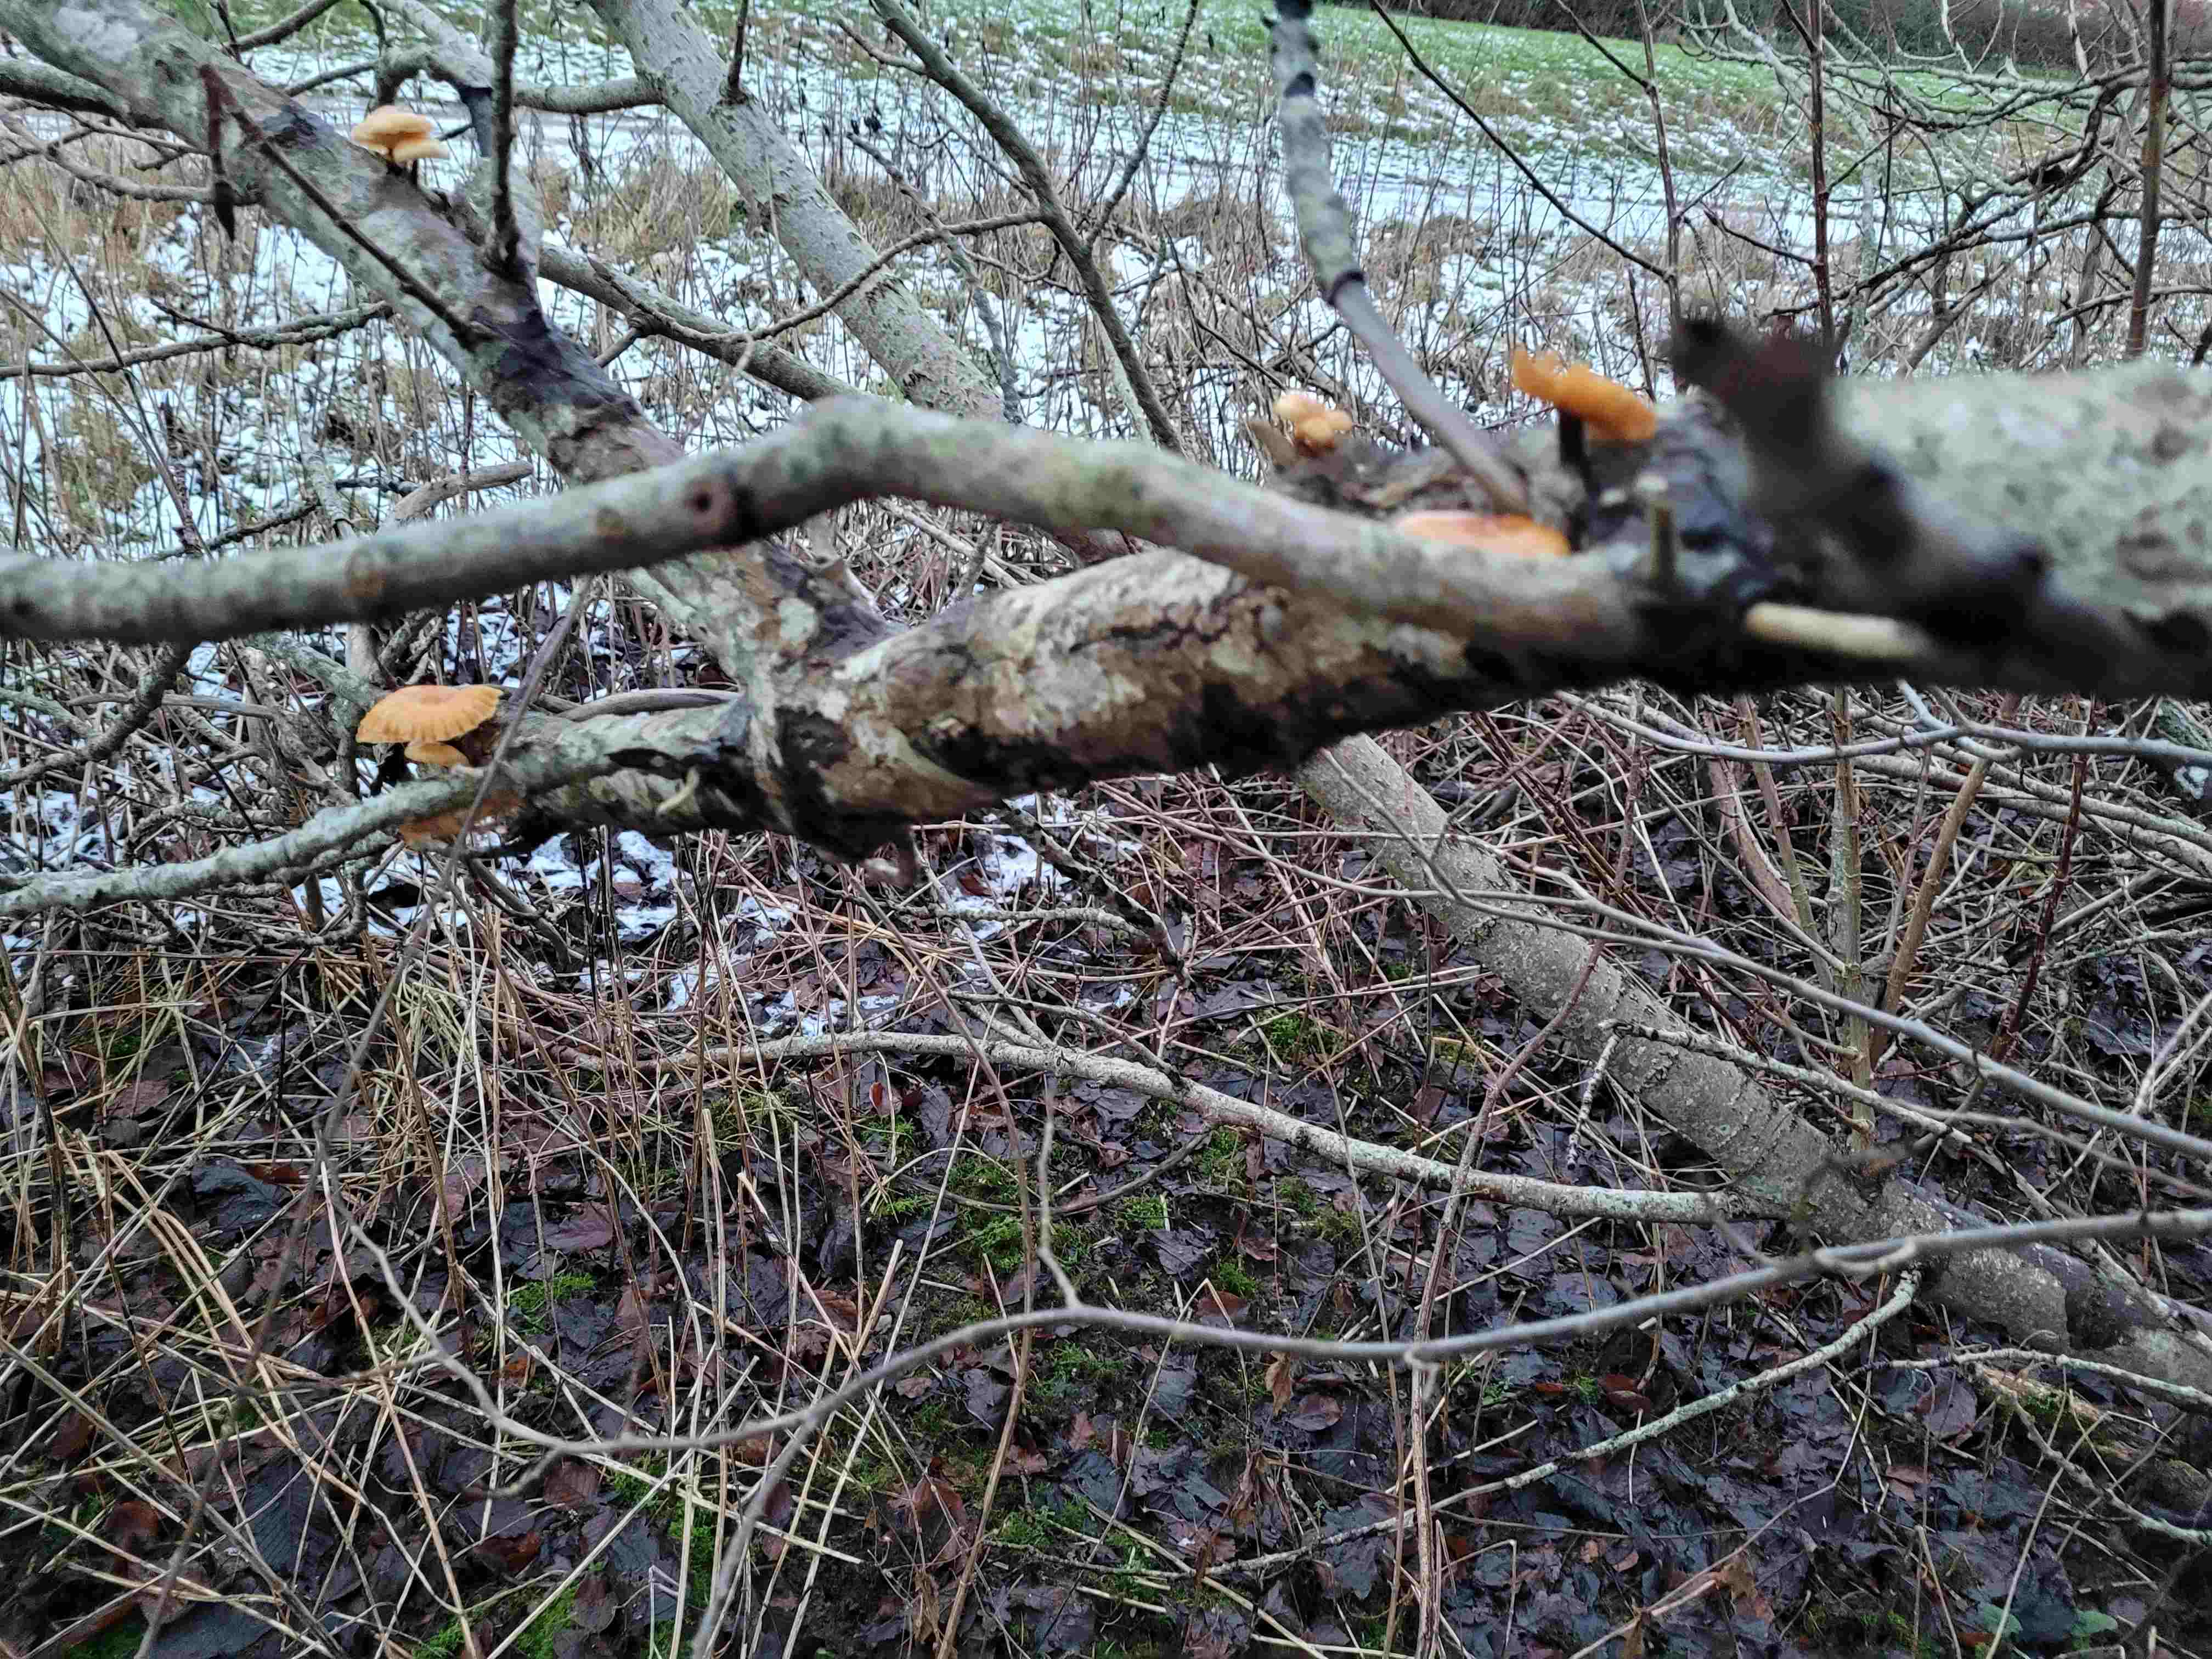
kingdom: Fungi
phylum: Basidiomycota
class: Agaricomycetes
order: Agaricales
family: Physalacriaceae
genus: Flammulina
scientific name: Flammulina velutipes
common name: gul fløjlsfod
